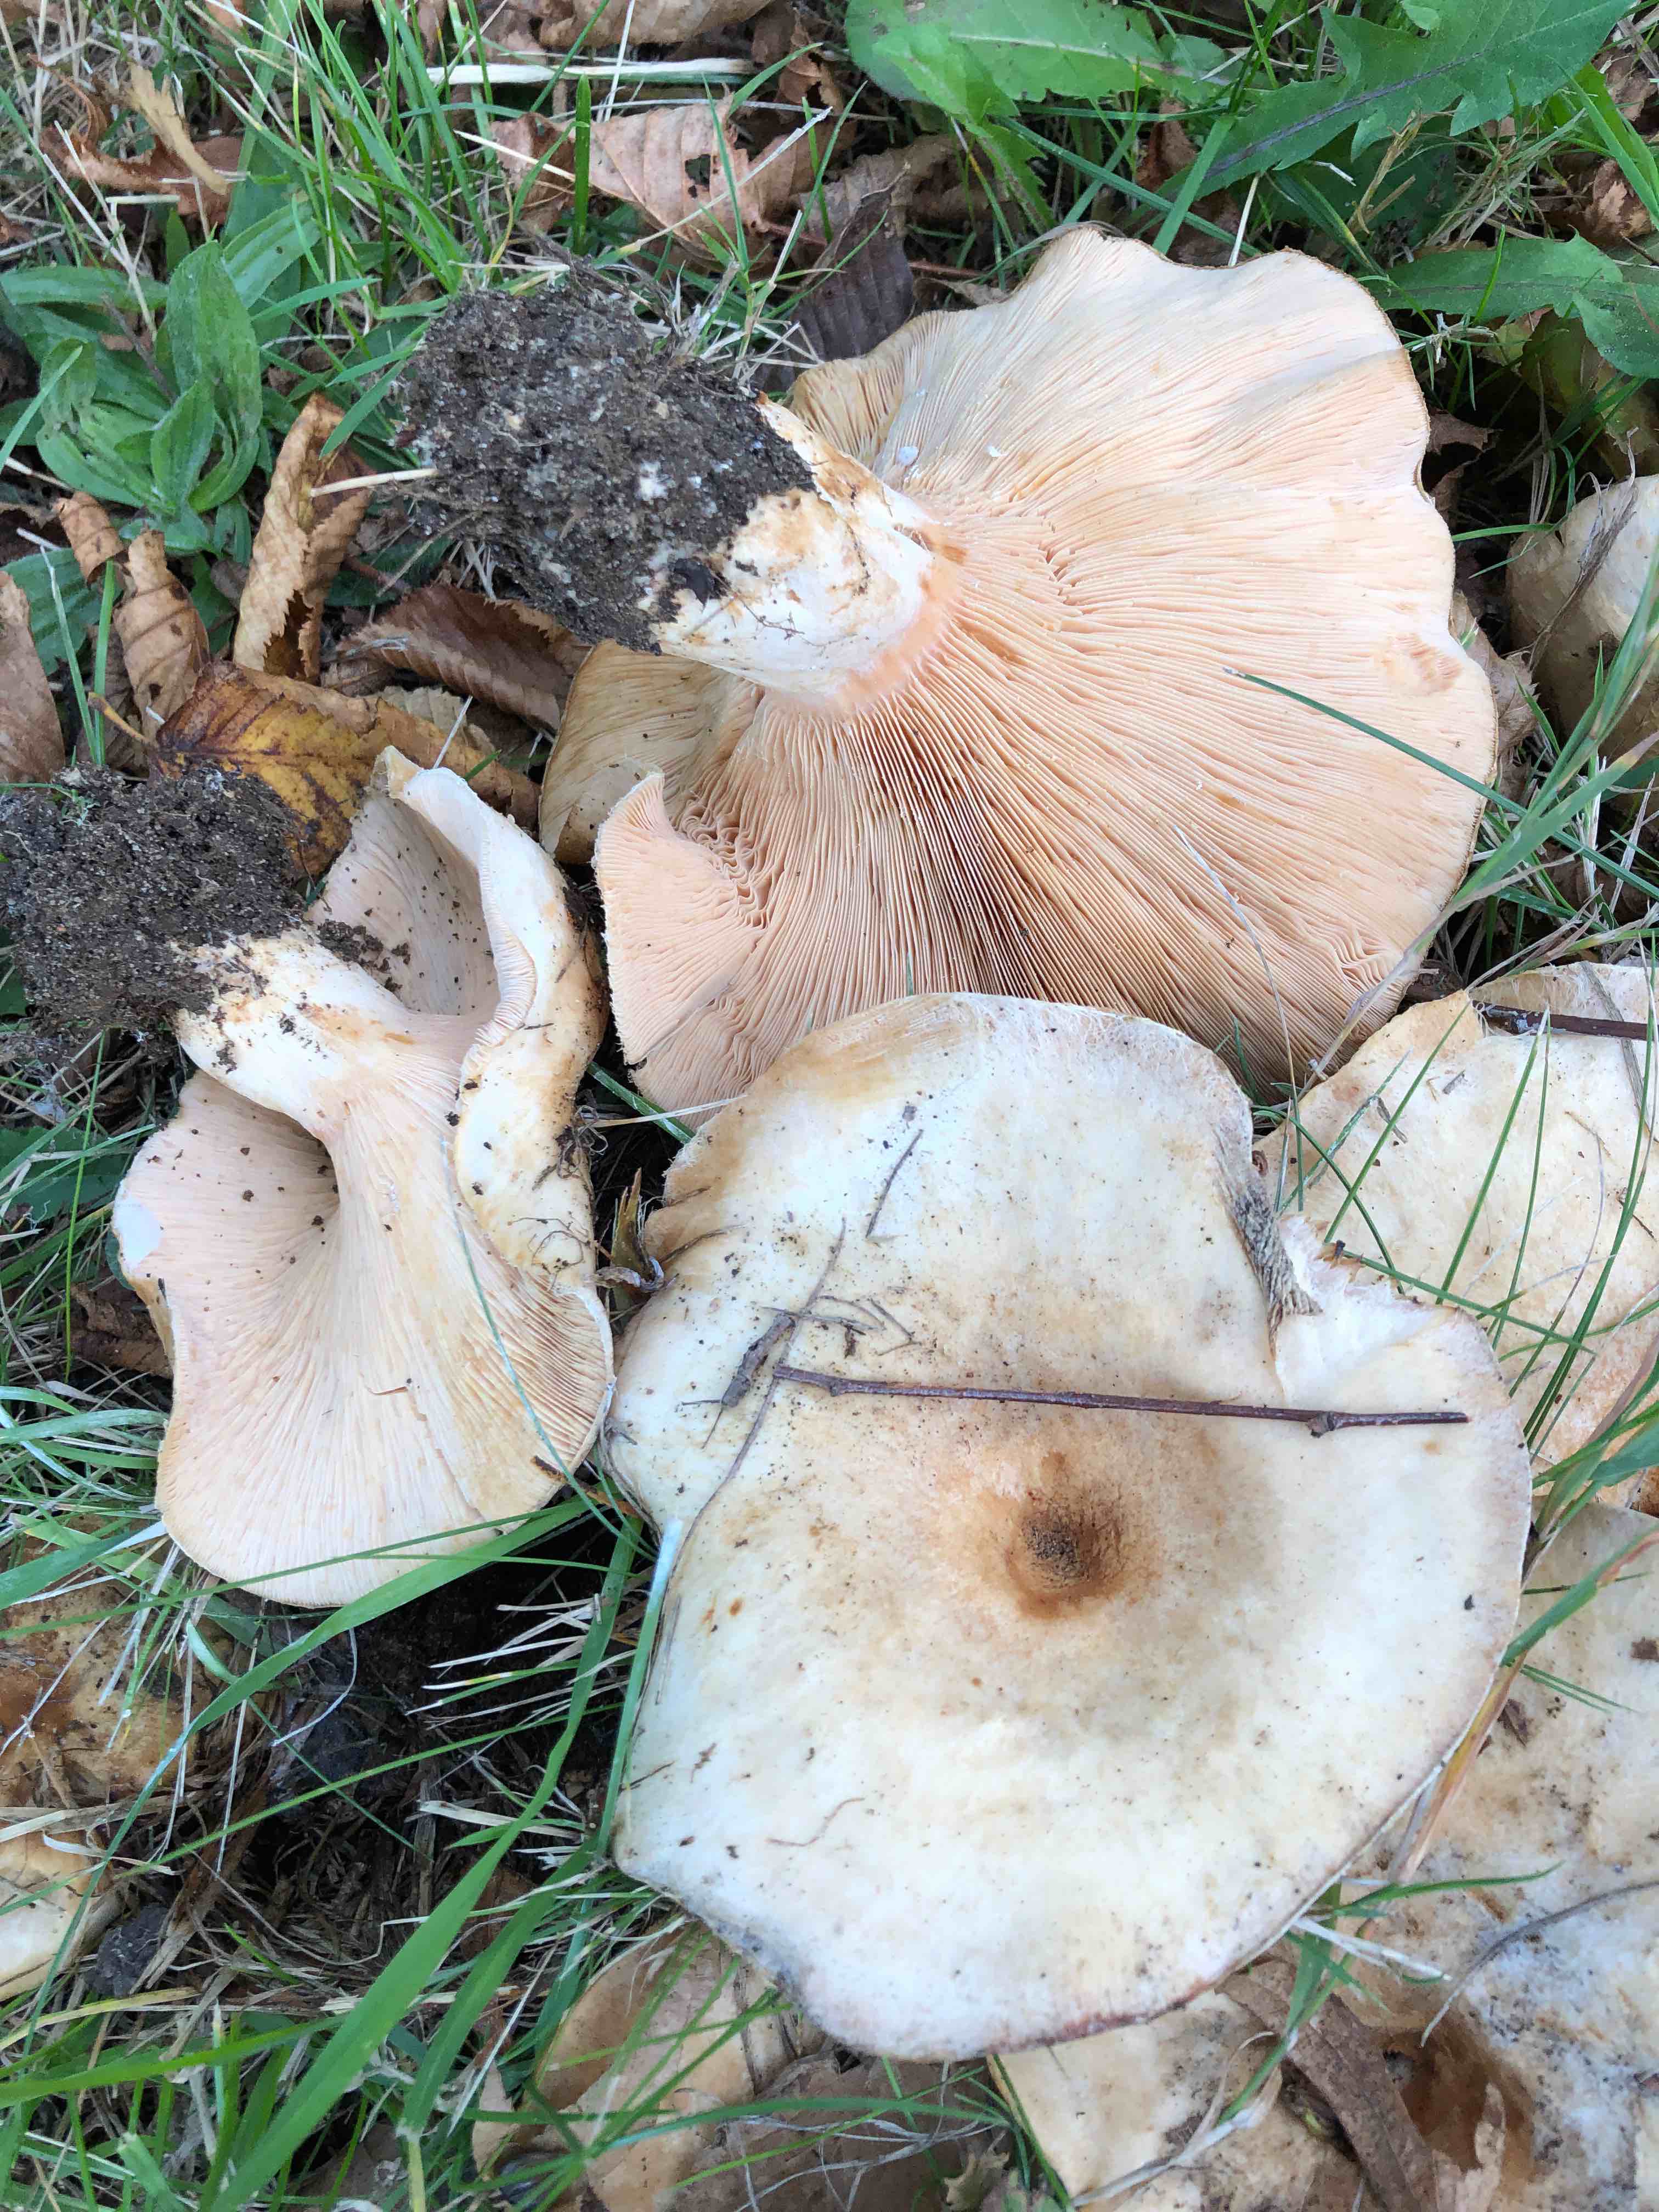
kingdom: Fungi
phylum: Basidiomycota
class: Agaricomycetes
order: Russulales
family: Russulaceae
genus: Lactarius
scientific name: Lactarius pubescens
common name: dunet mælkehat
